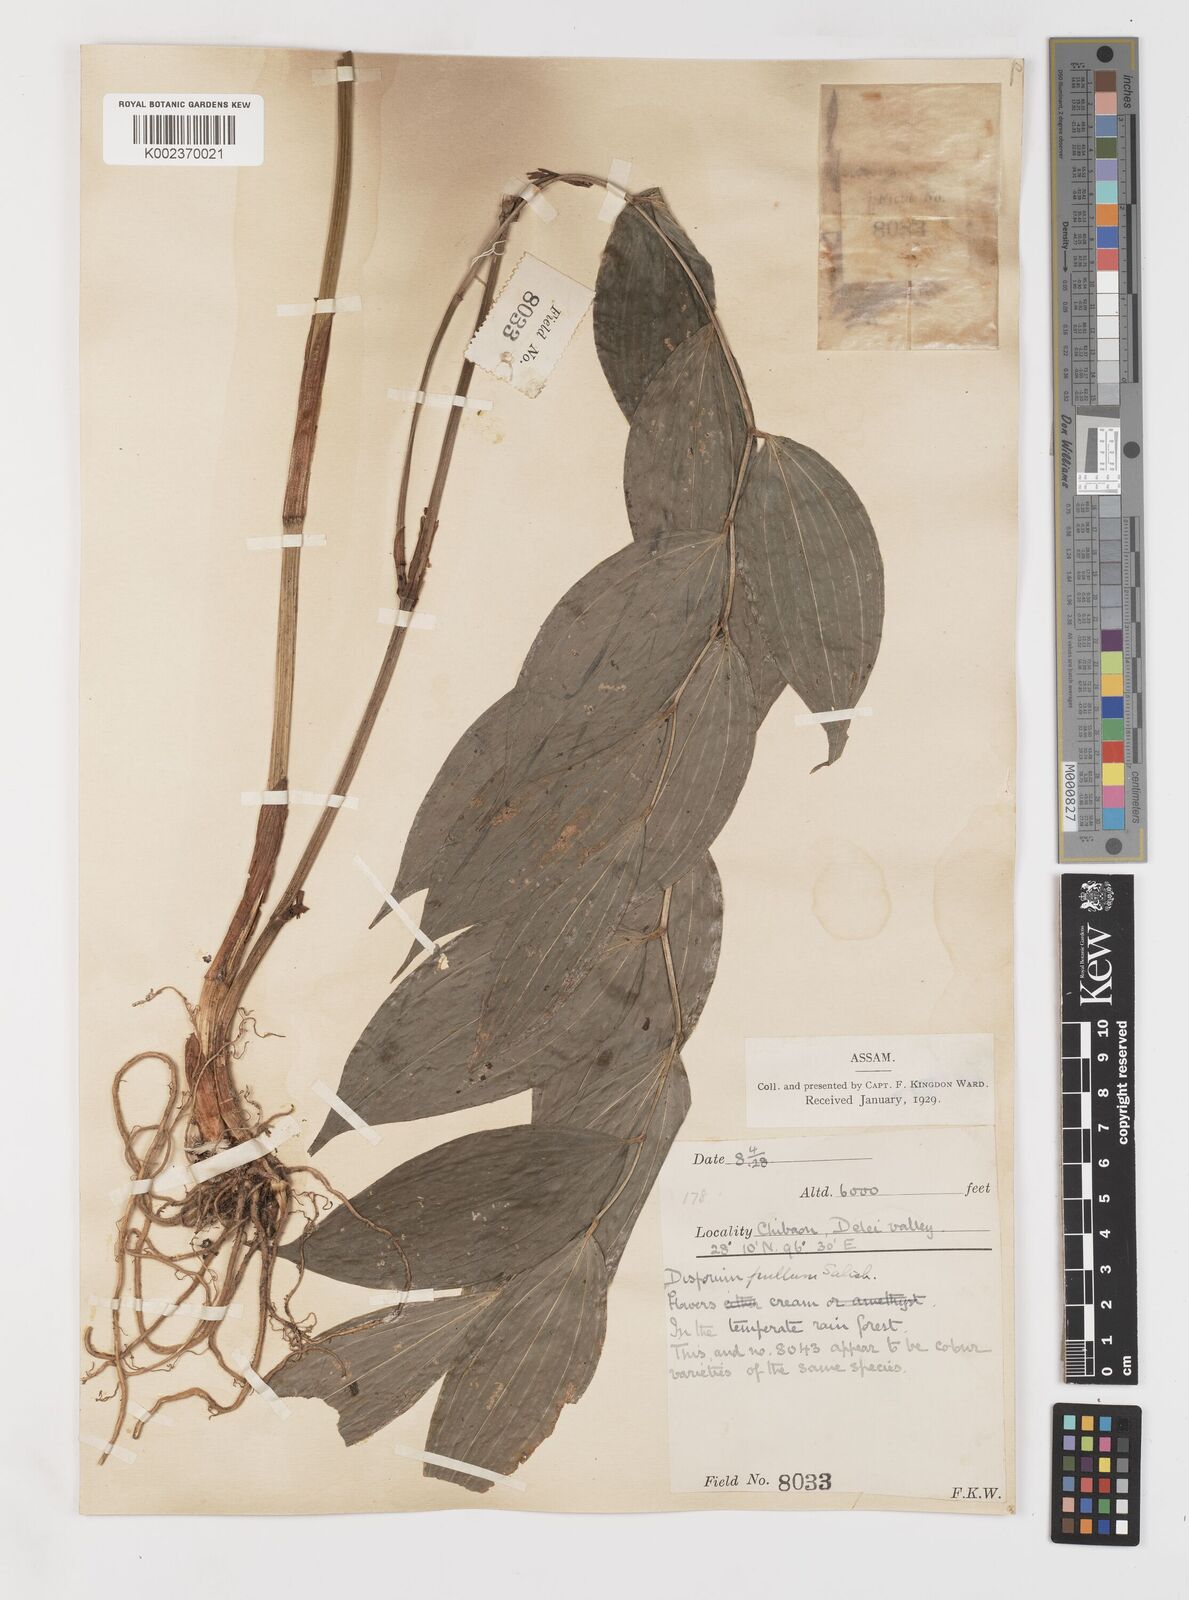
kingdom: Plantae
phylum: Tracheophyta
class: Liliopsida
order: Liliales
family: Colchicaceae
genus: Disporum
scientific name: Disporum cantoniense
